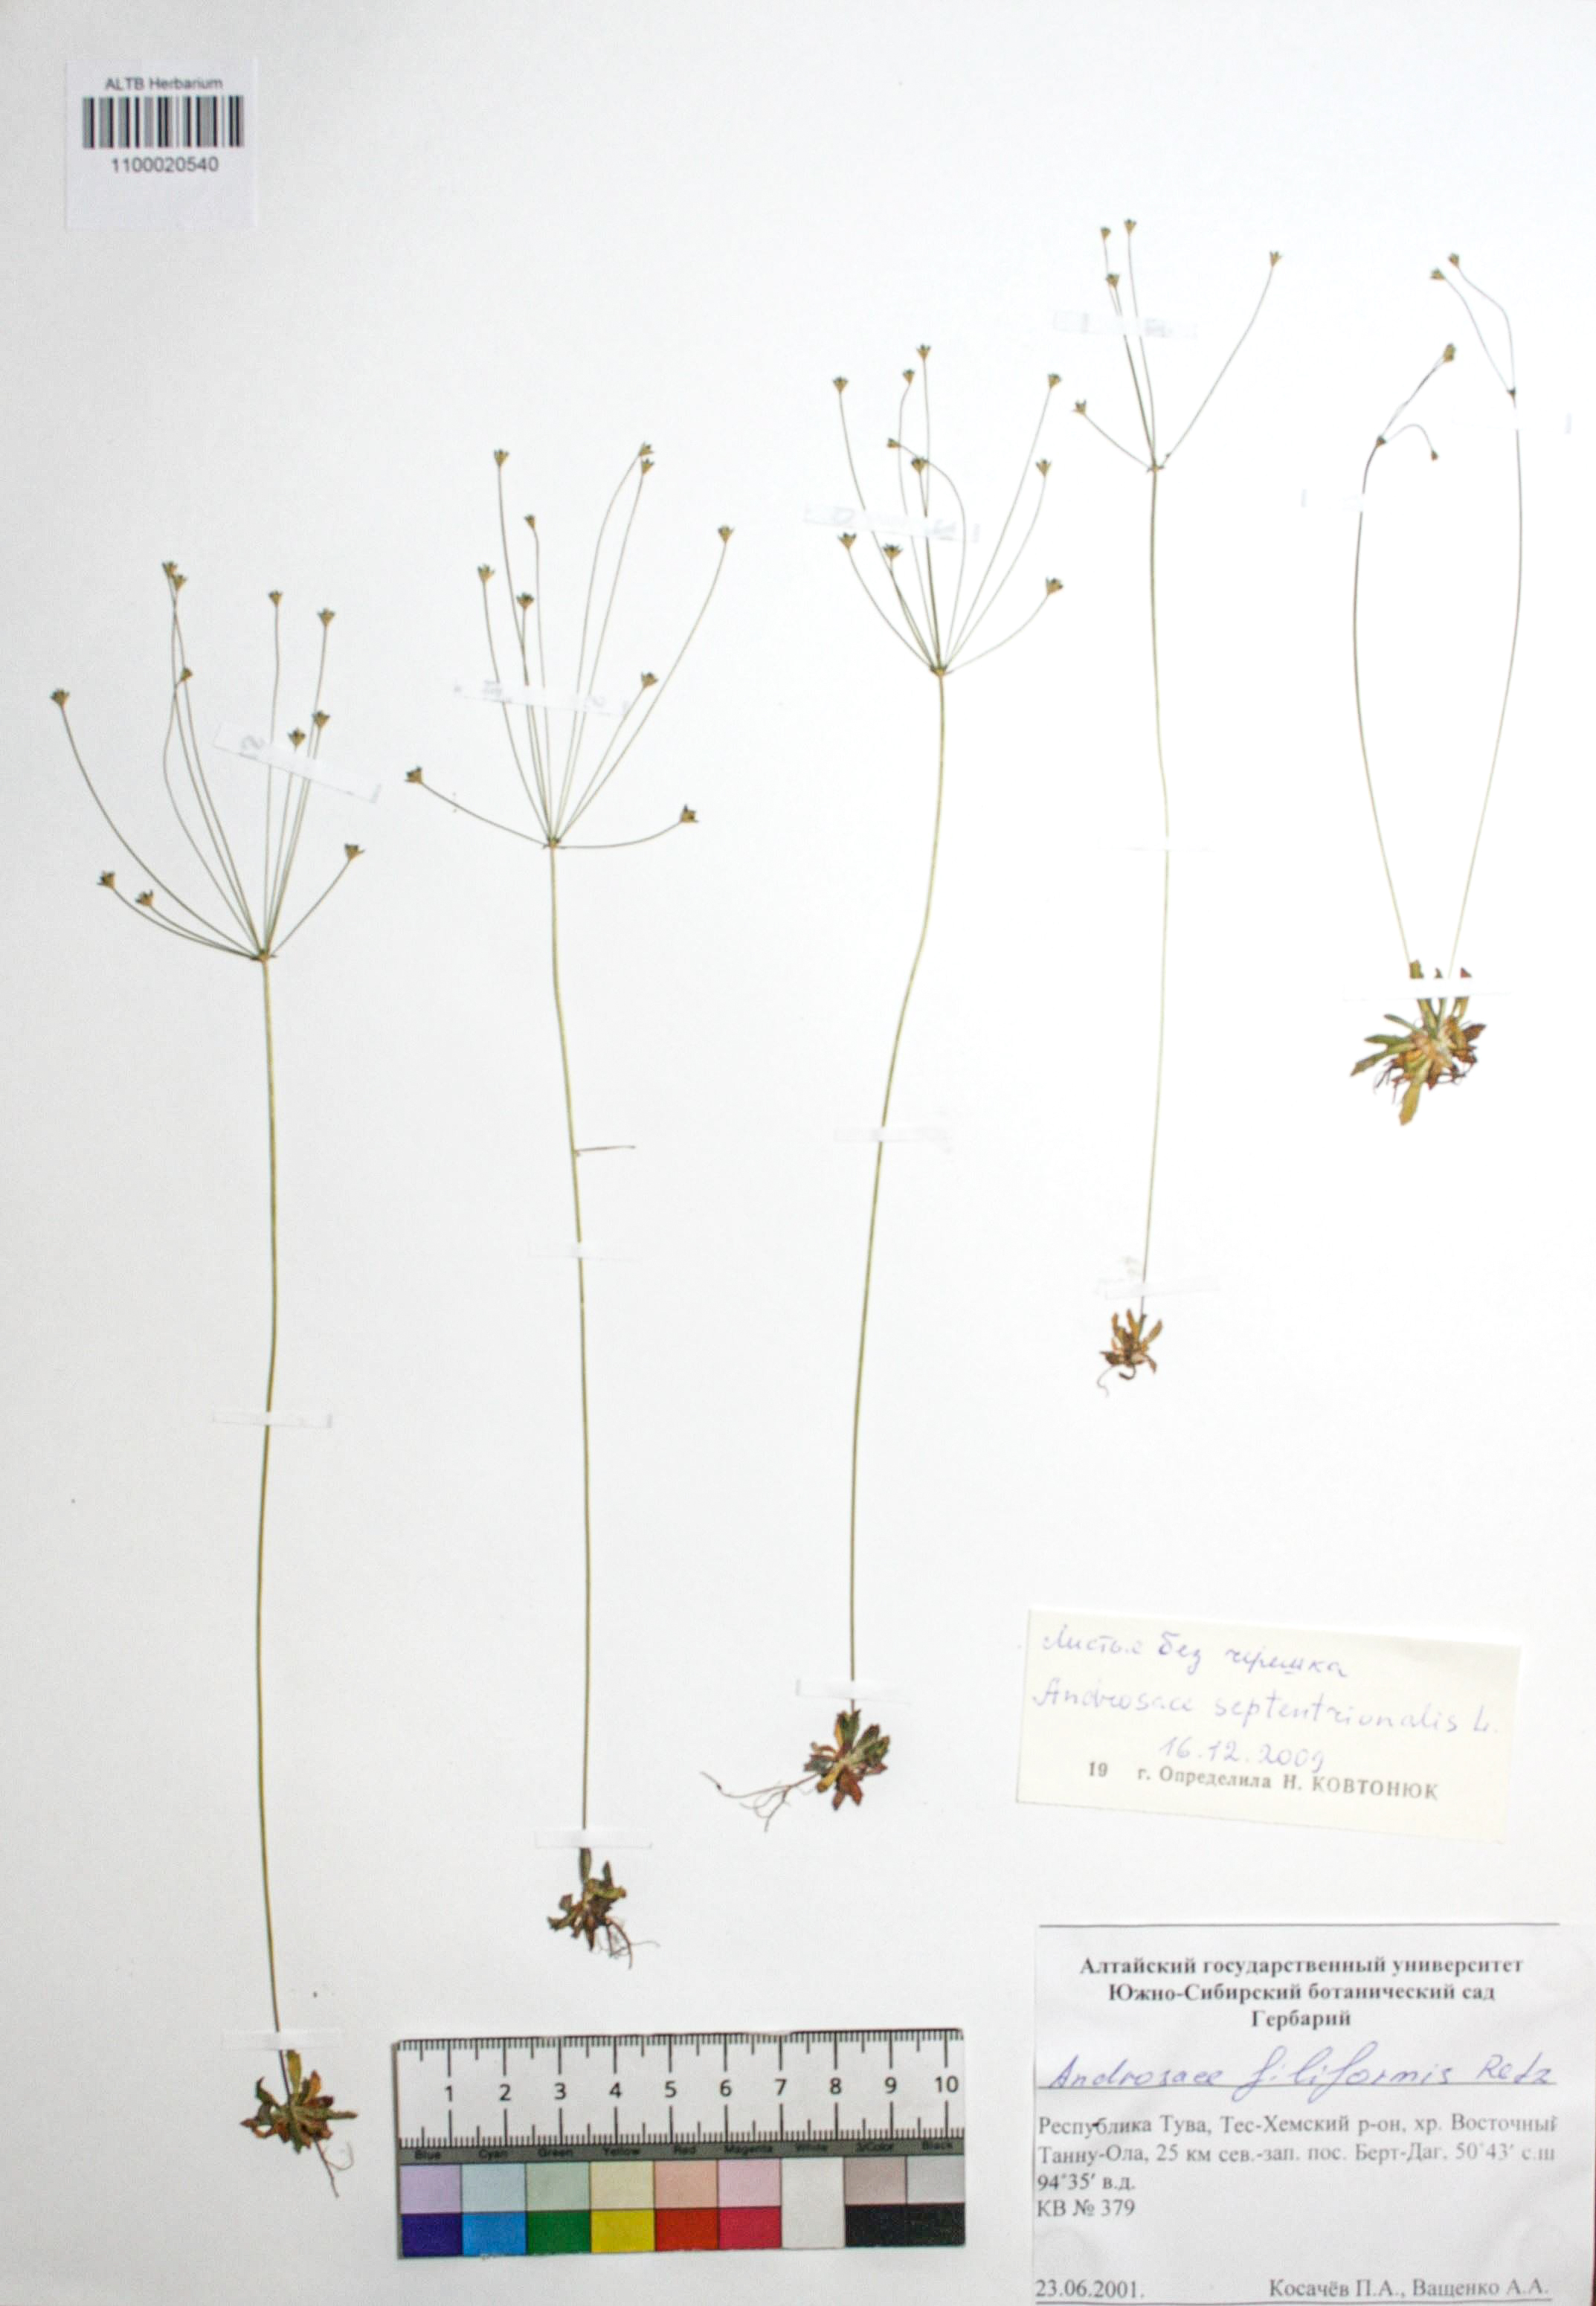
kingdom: Plantae
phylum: Tracheophyta
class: Magnoliopsida
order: Ericales
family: Primulaceae
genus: Androsace
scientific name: Androsace septentrionalis
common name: Hairy northern fairy-candelabra
